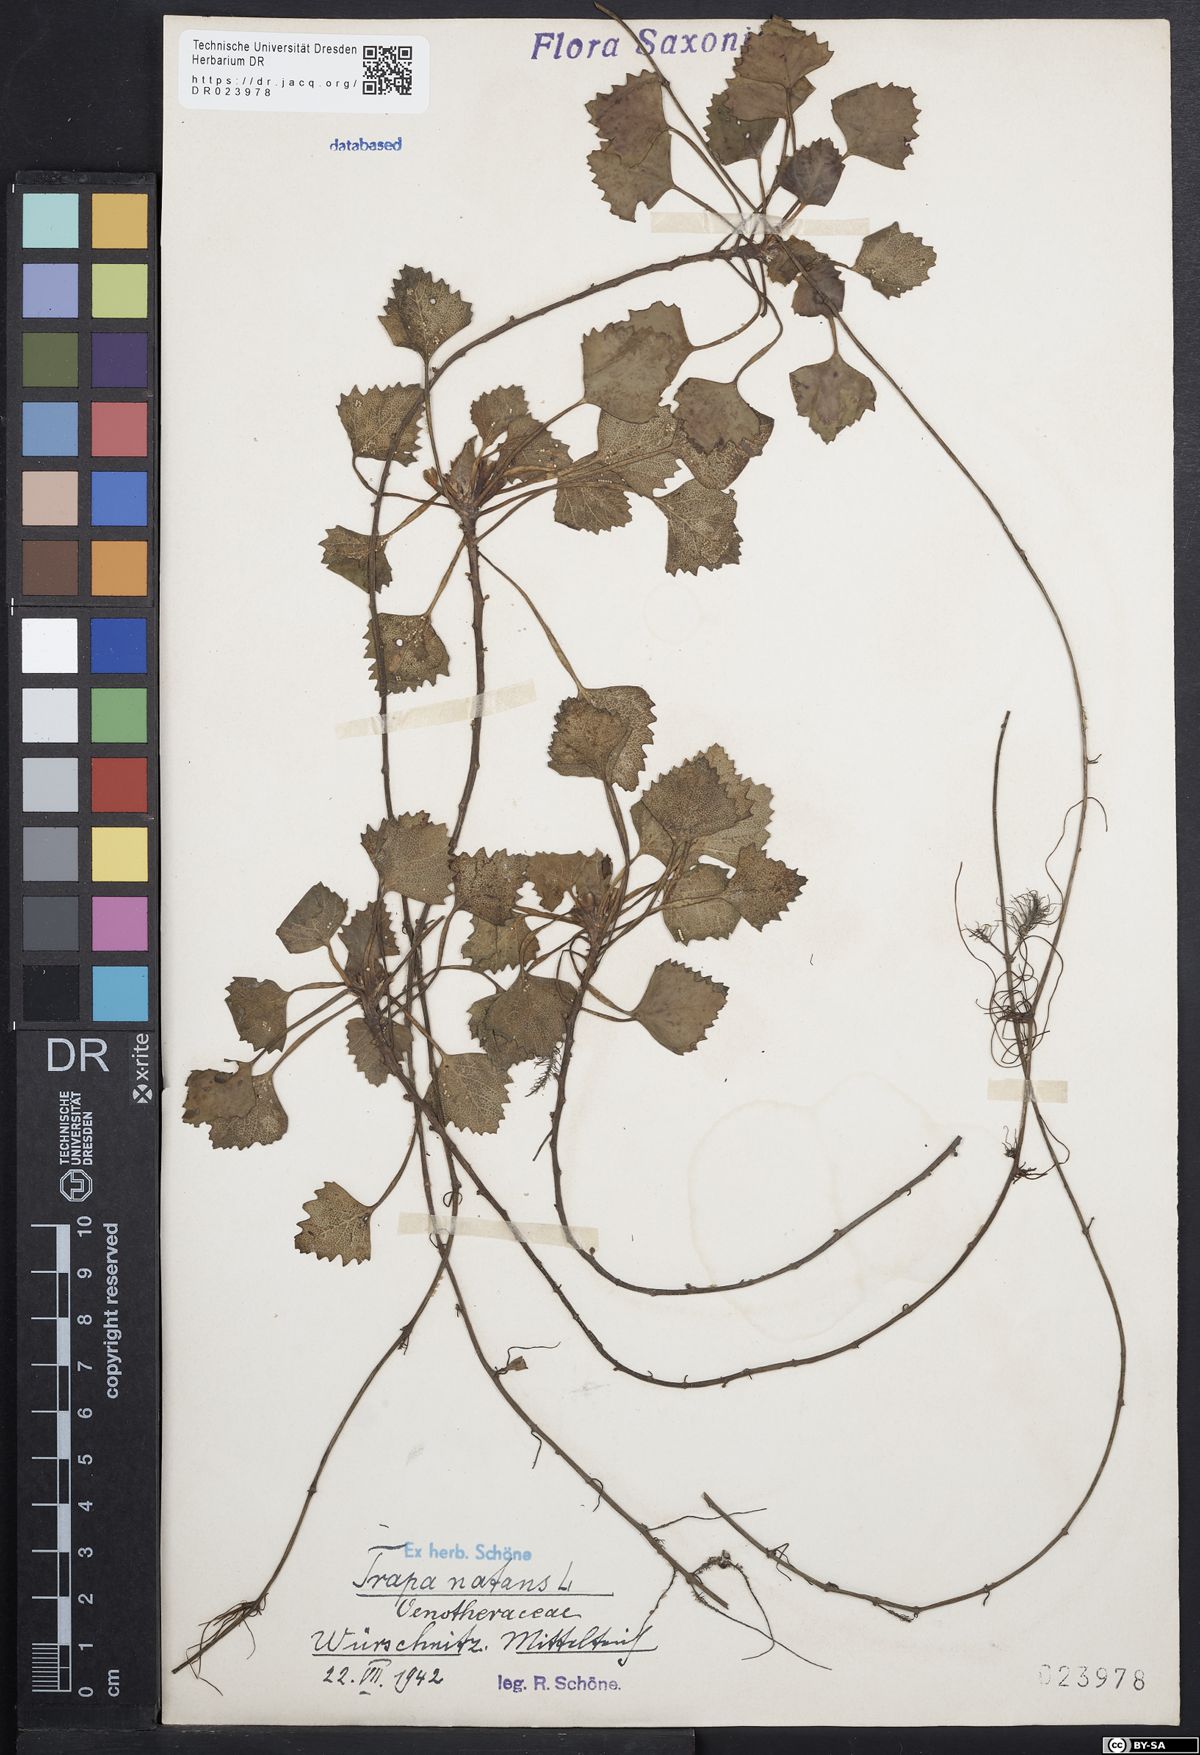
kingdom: Plantae
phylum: Tracheophyta
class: Magnoliopsida
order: Myrtales
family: Lythraceae
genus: Trapa
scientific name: Trapa natans
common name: Water chestnut
